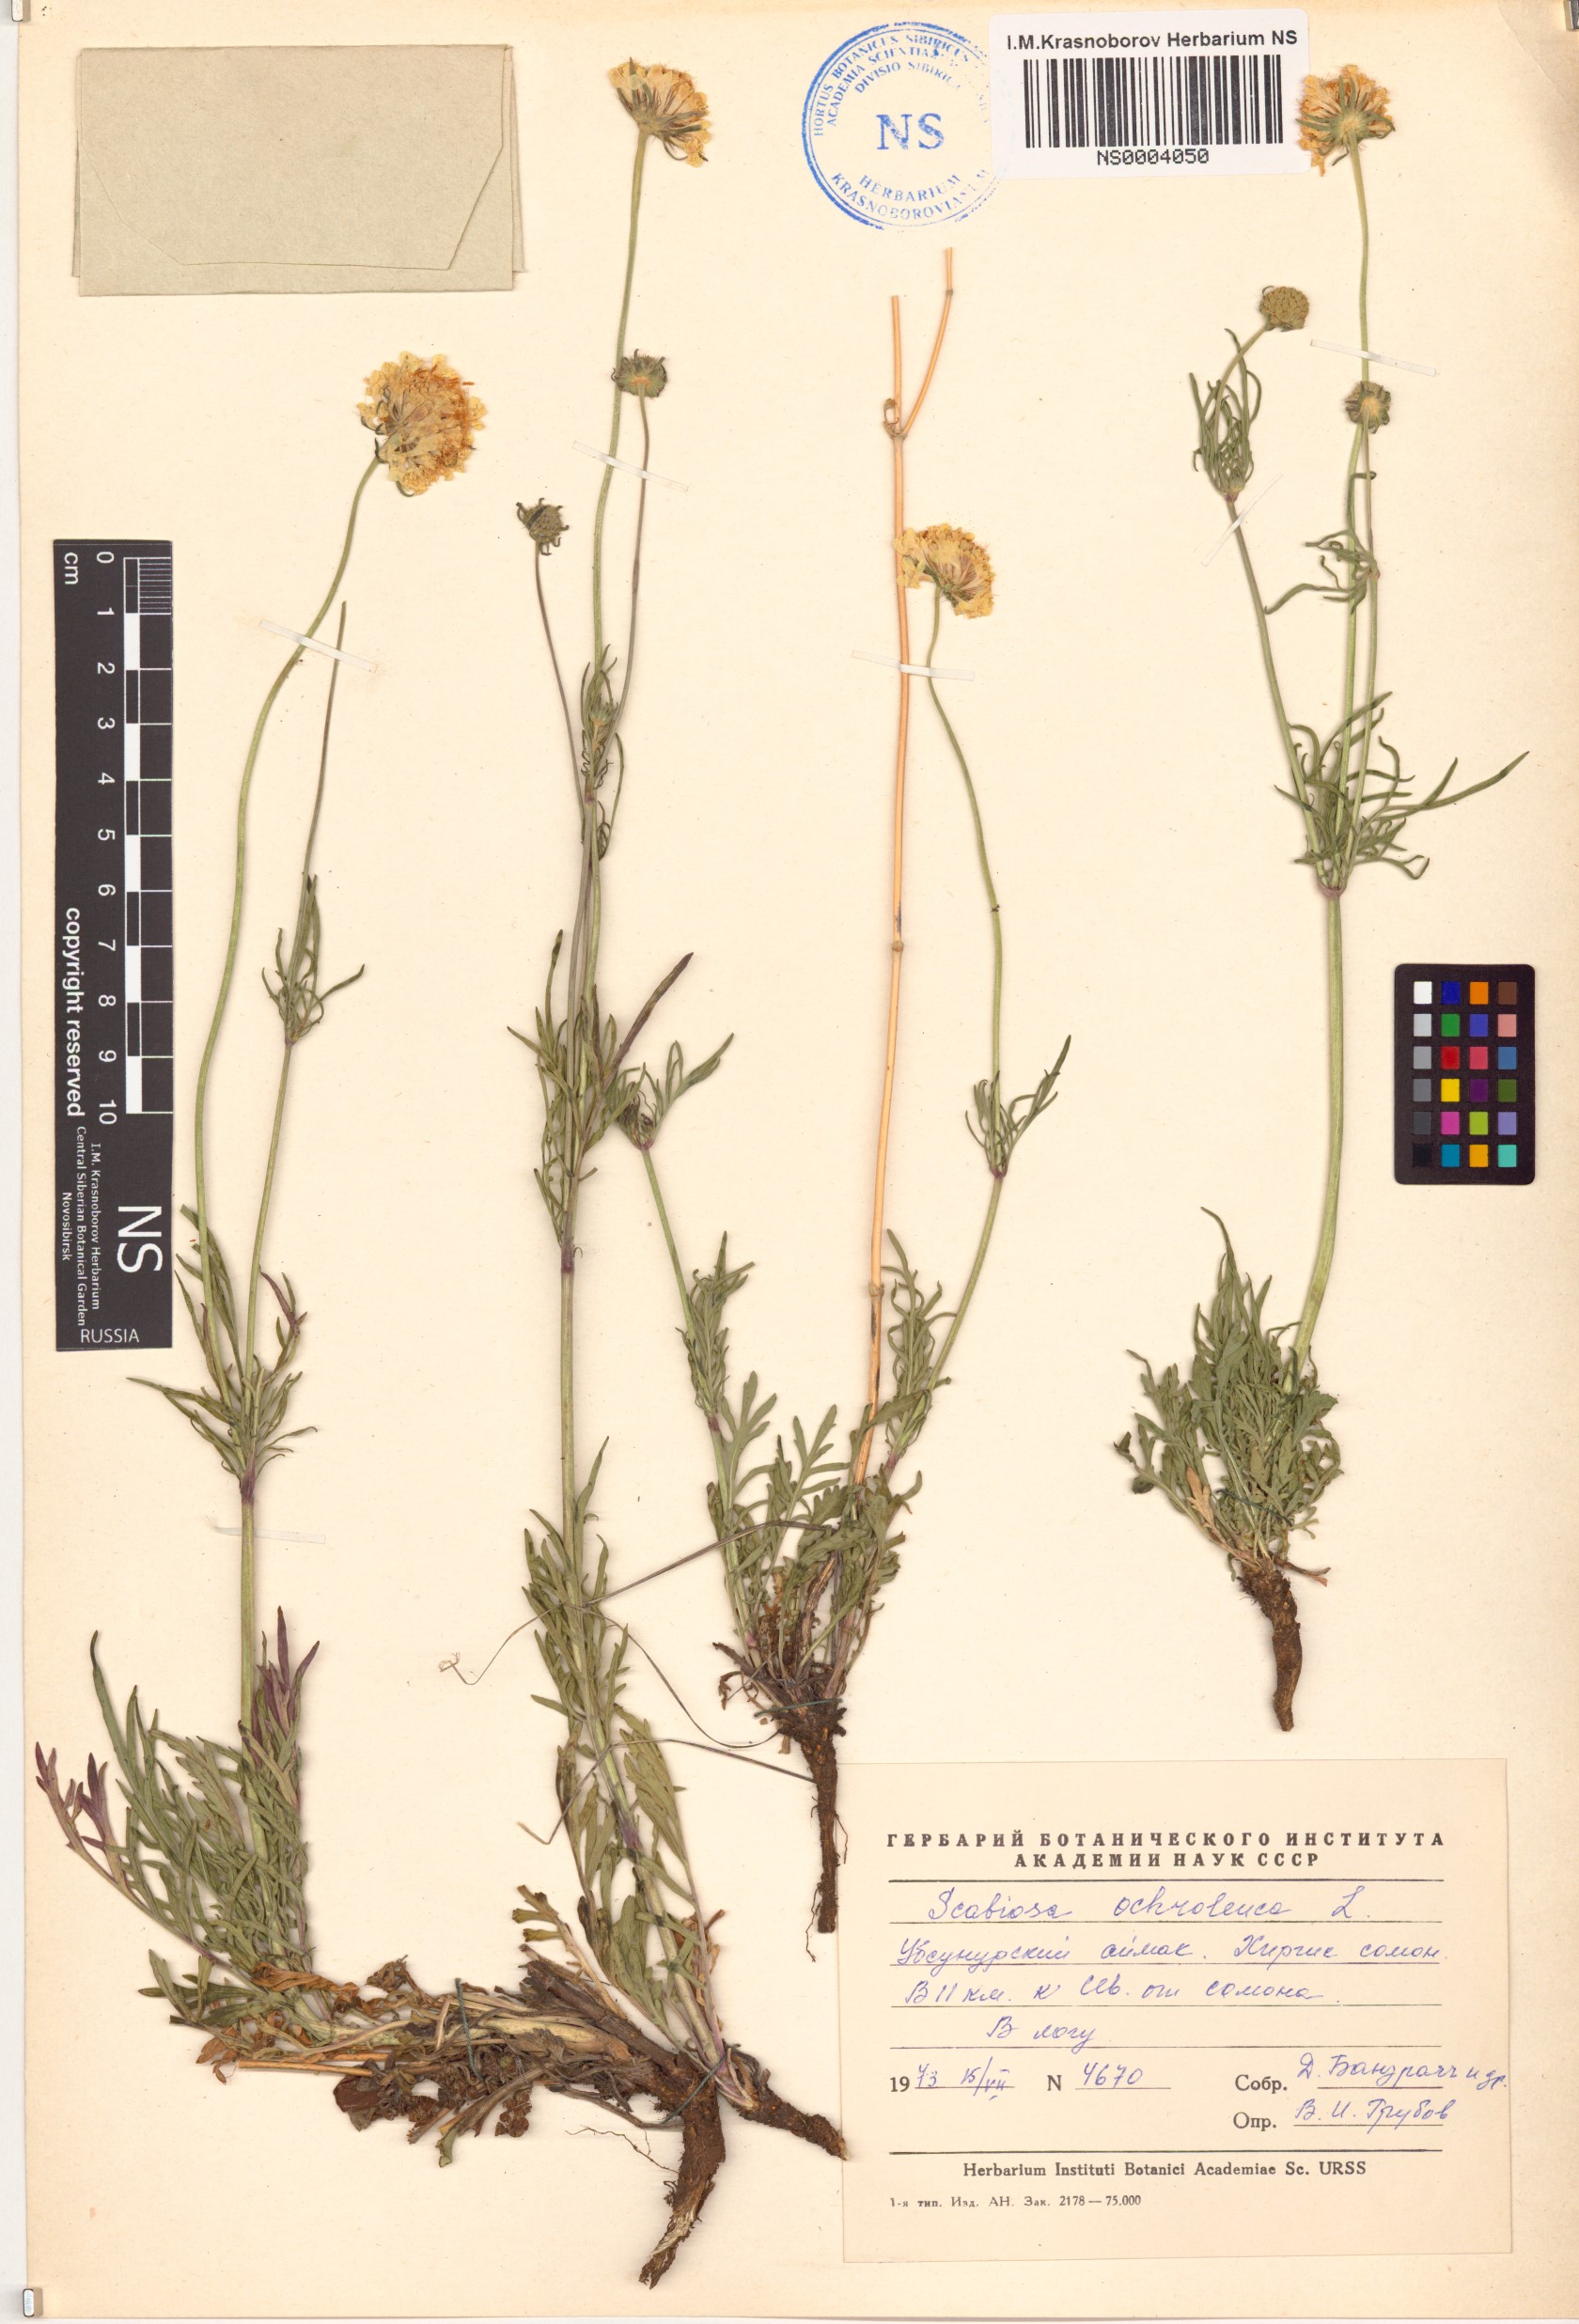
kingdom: Plantae
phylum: Tracheophyta
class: Magnoliopsida
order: Dipsacales
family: Caprifoliaceae
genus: Scabiosa
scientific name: Scabiosa ochroleuca
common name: Cream pincushions
